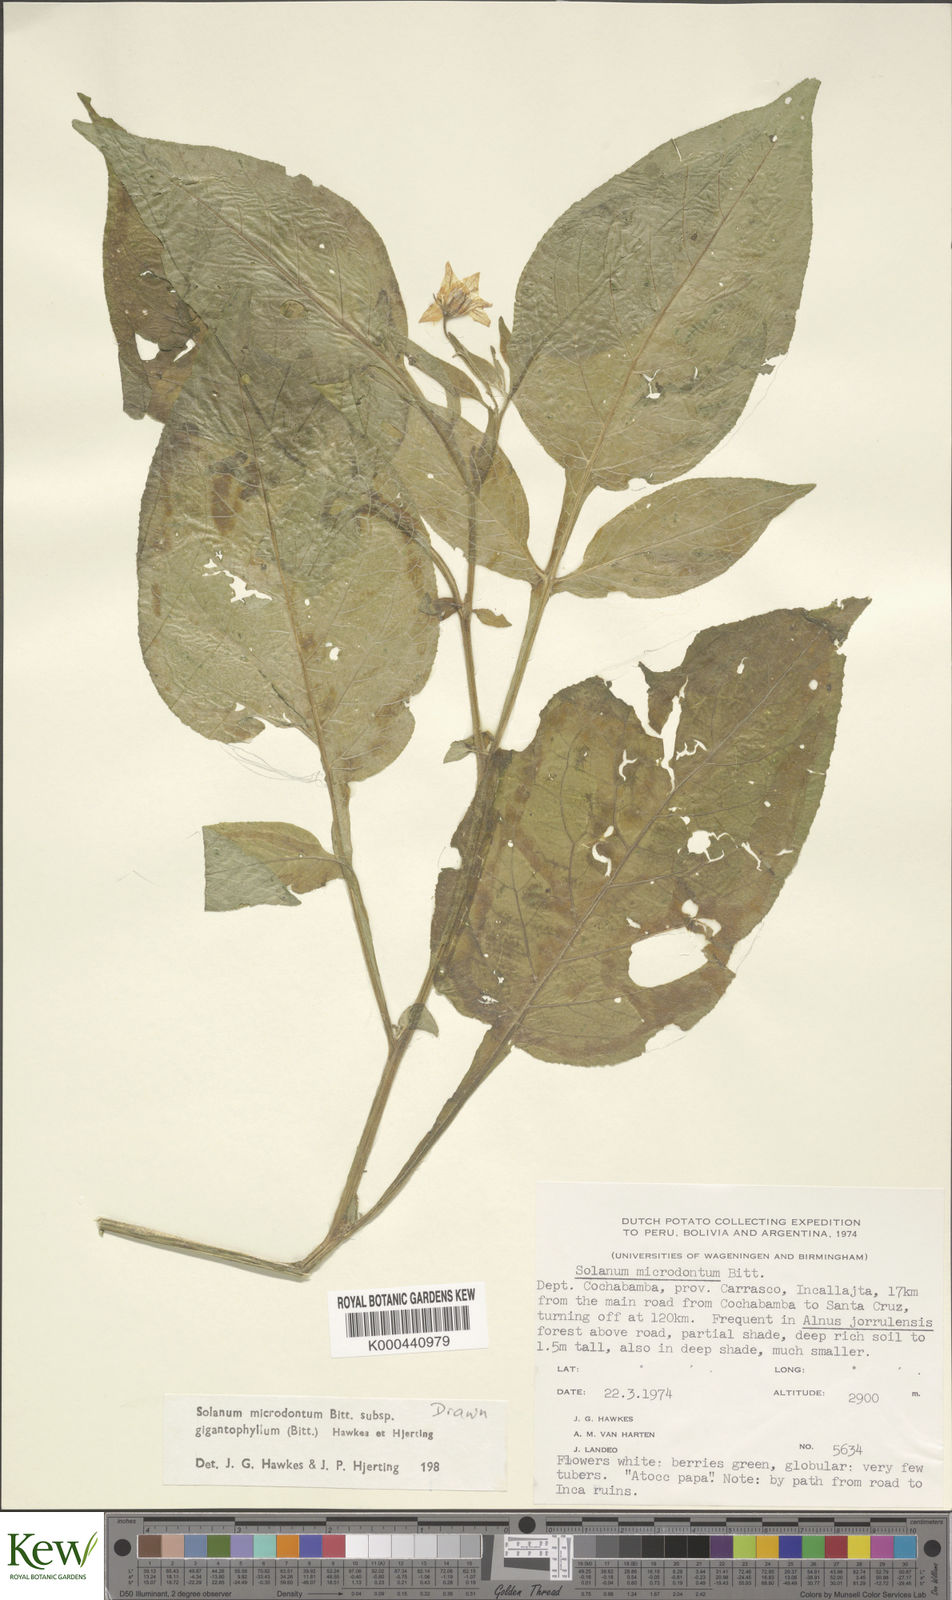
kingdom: Plantae
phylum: Tracheophyta
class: Magnoliopsida
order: Solanales
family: Solanaceae
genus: Solanum
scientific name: Solanum microdontum
